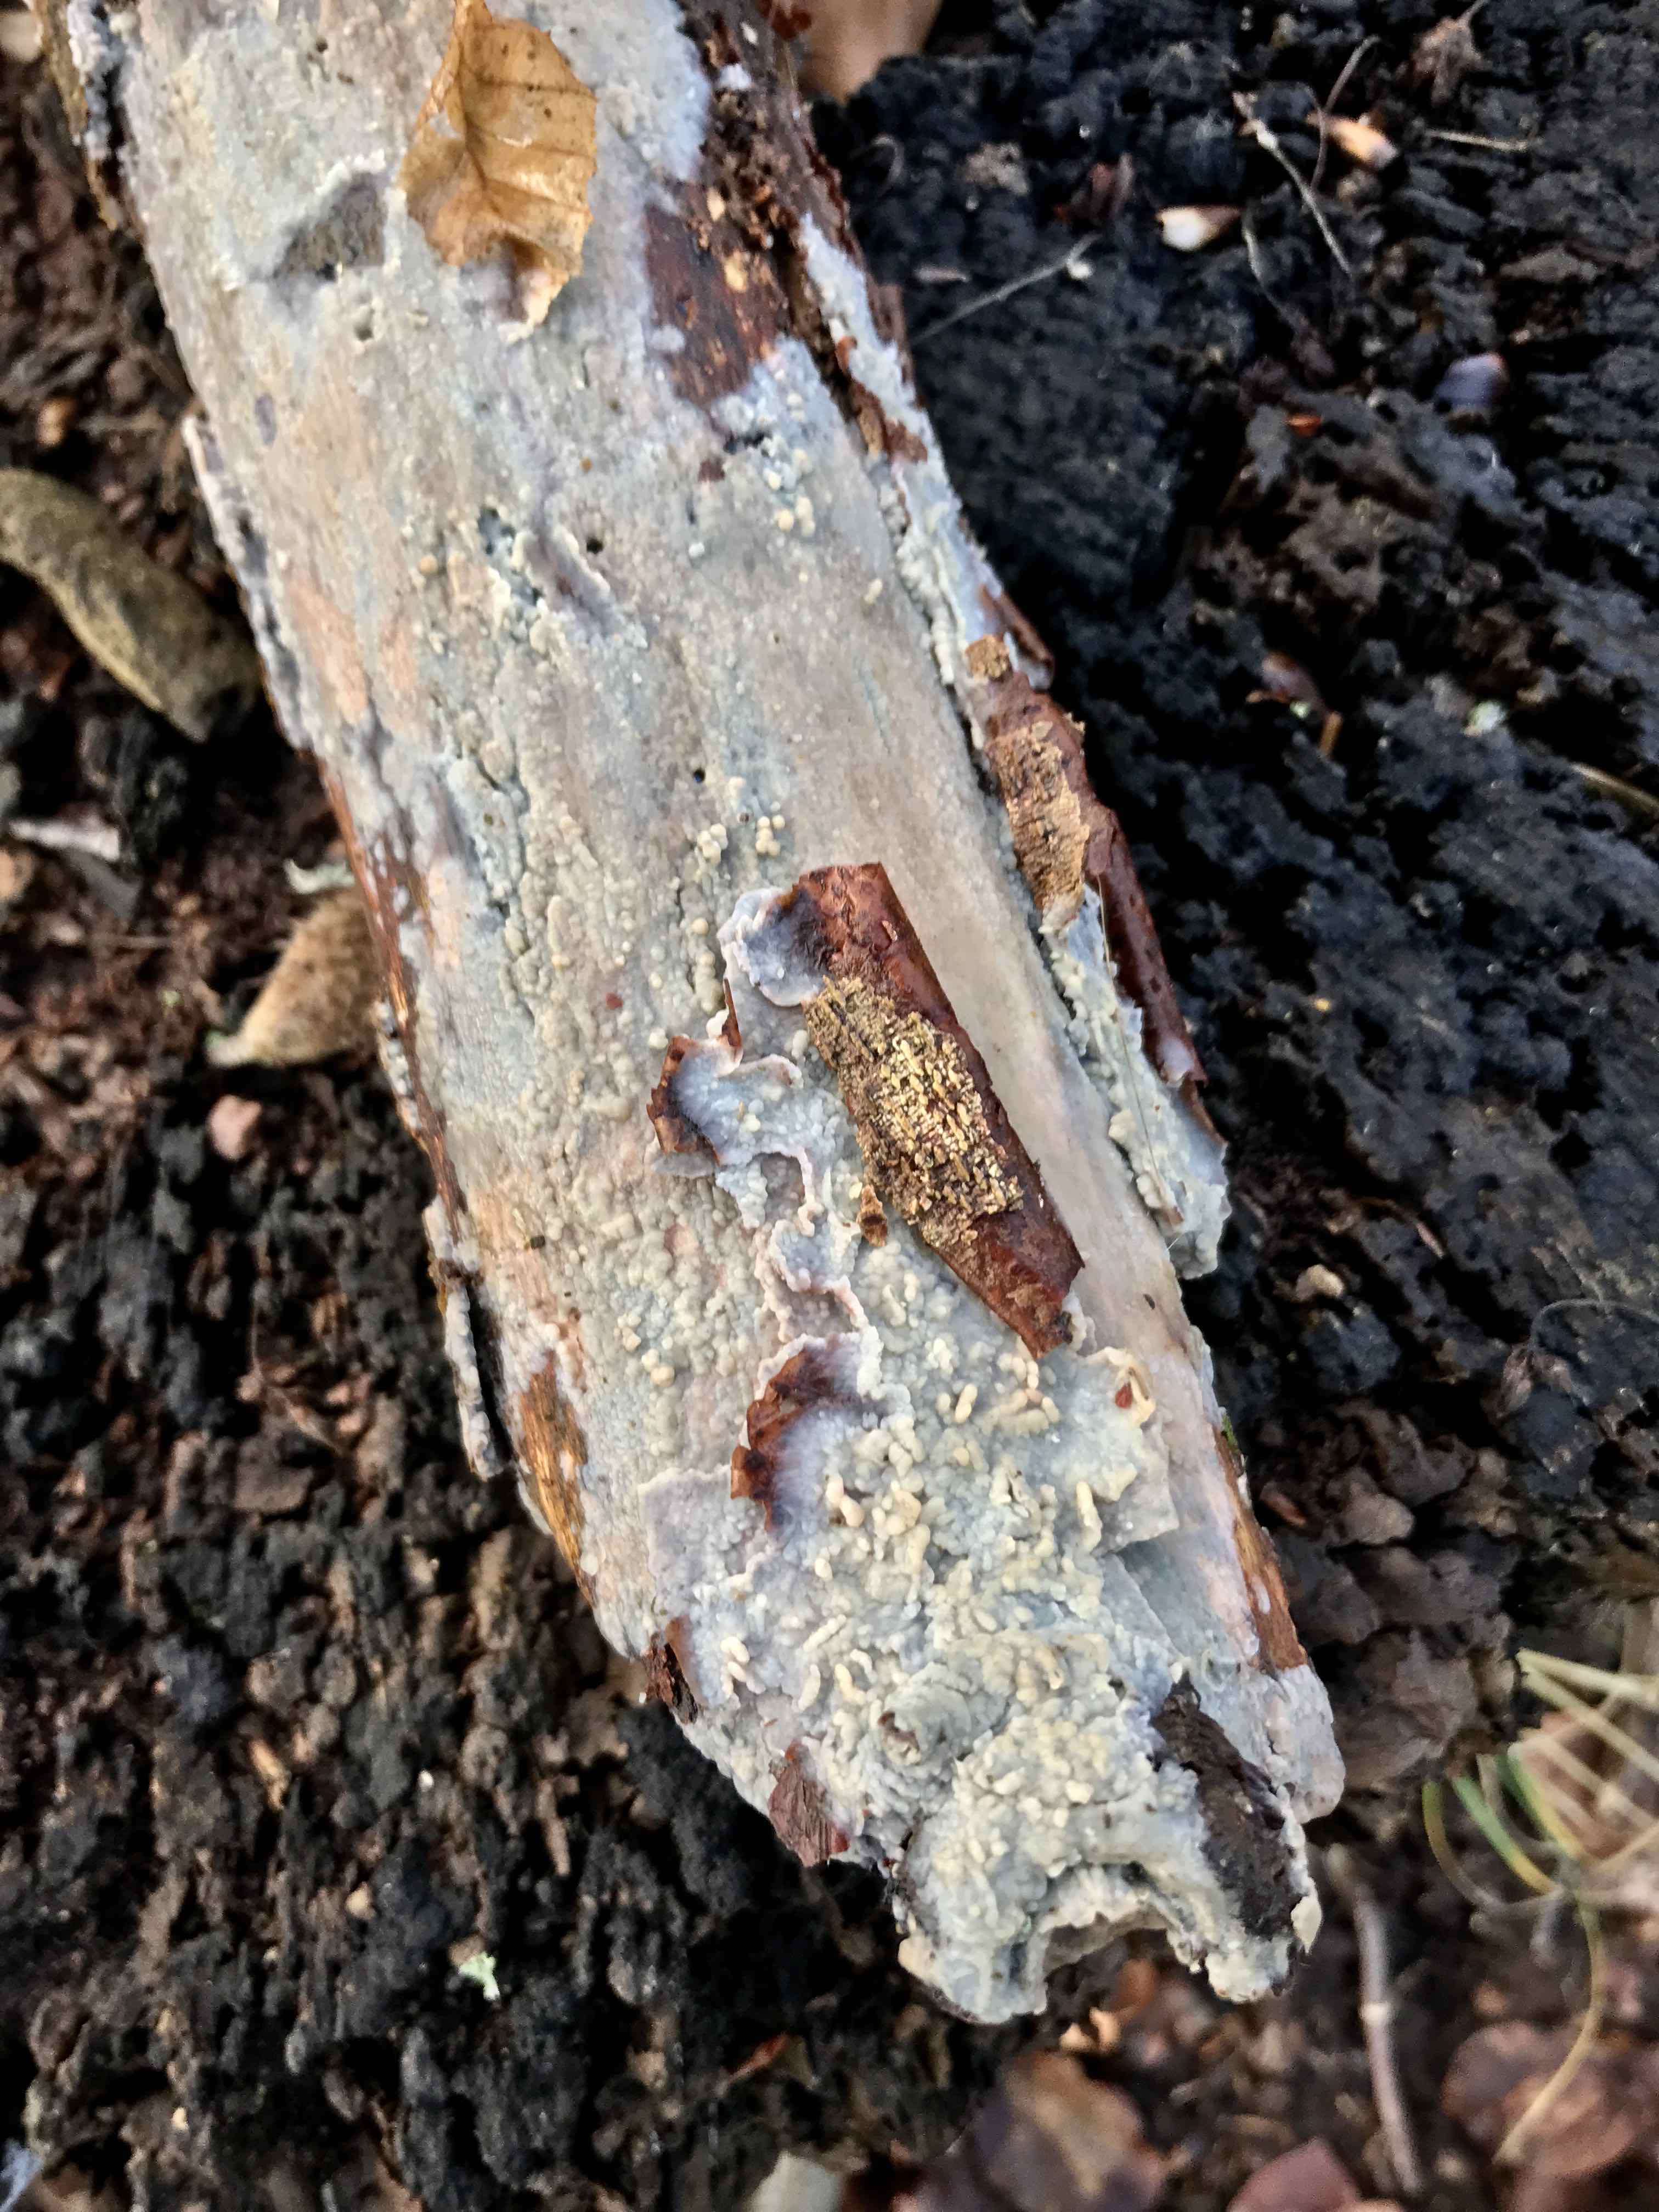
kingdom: Fungi
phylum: Basidiomycota
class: Agaricomycetes
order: Agaricales
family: Radulomycetaceae
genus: Radulomyces
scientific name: Radulomyces confluens
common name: glat naftalinskind
